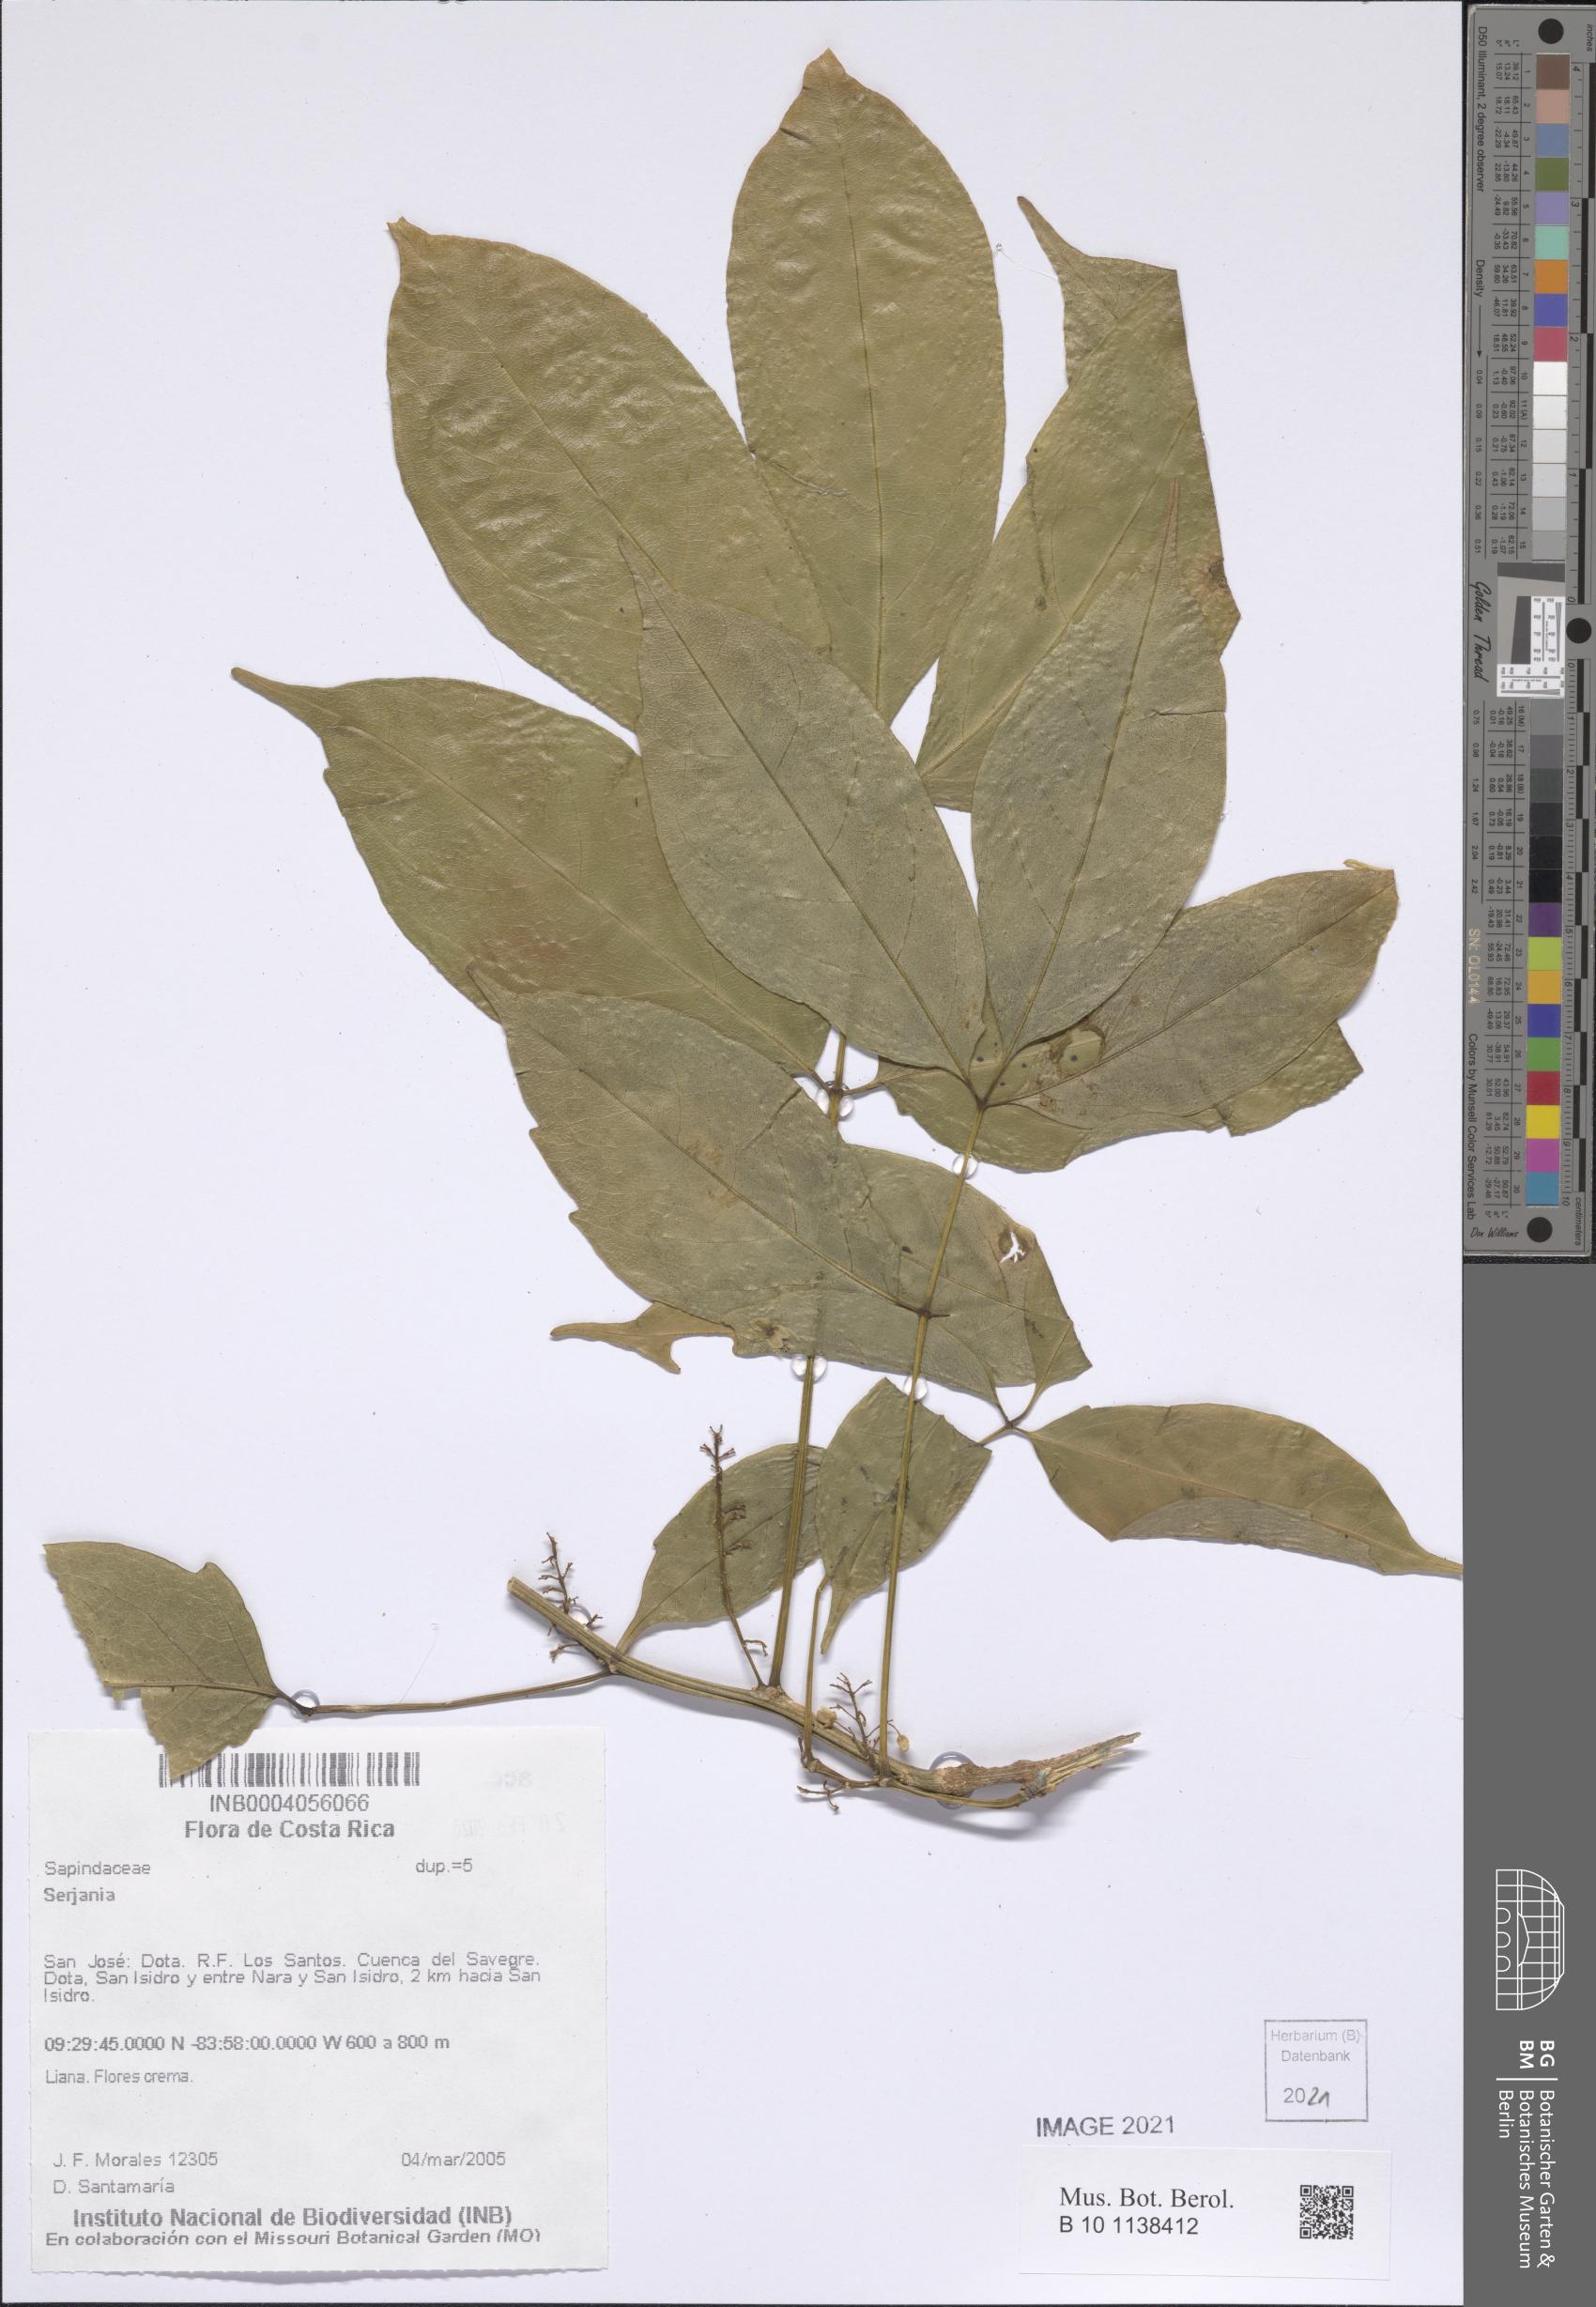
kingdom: Plantae
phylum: Tracheophyta
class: Magnoliopsida
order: Sapindales
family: Sapindaceae
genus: Serjania
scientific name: Serjania
